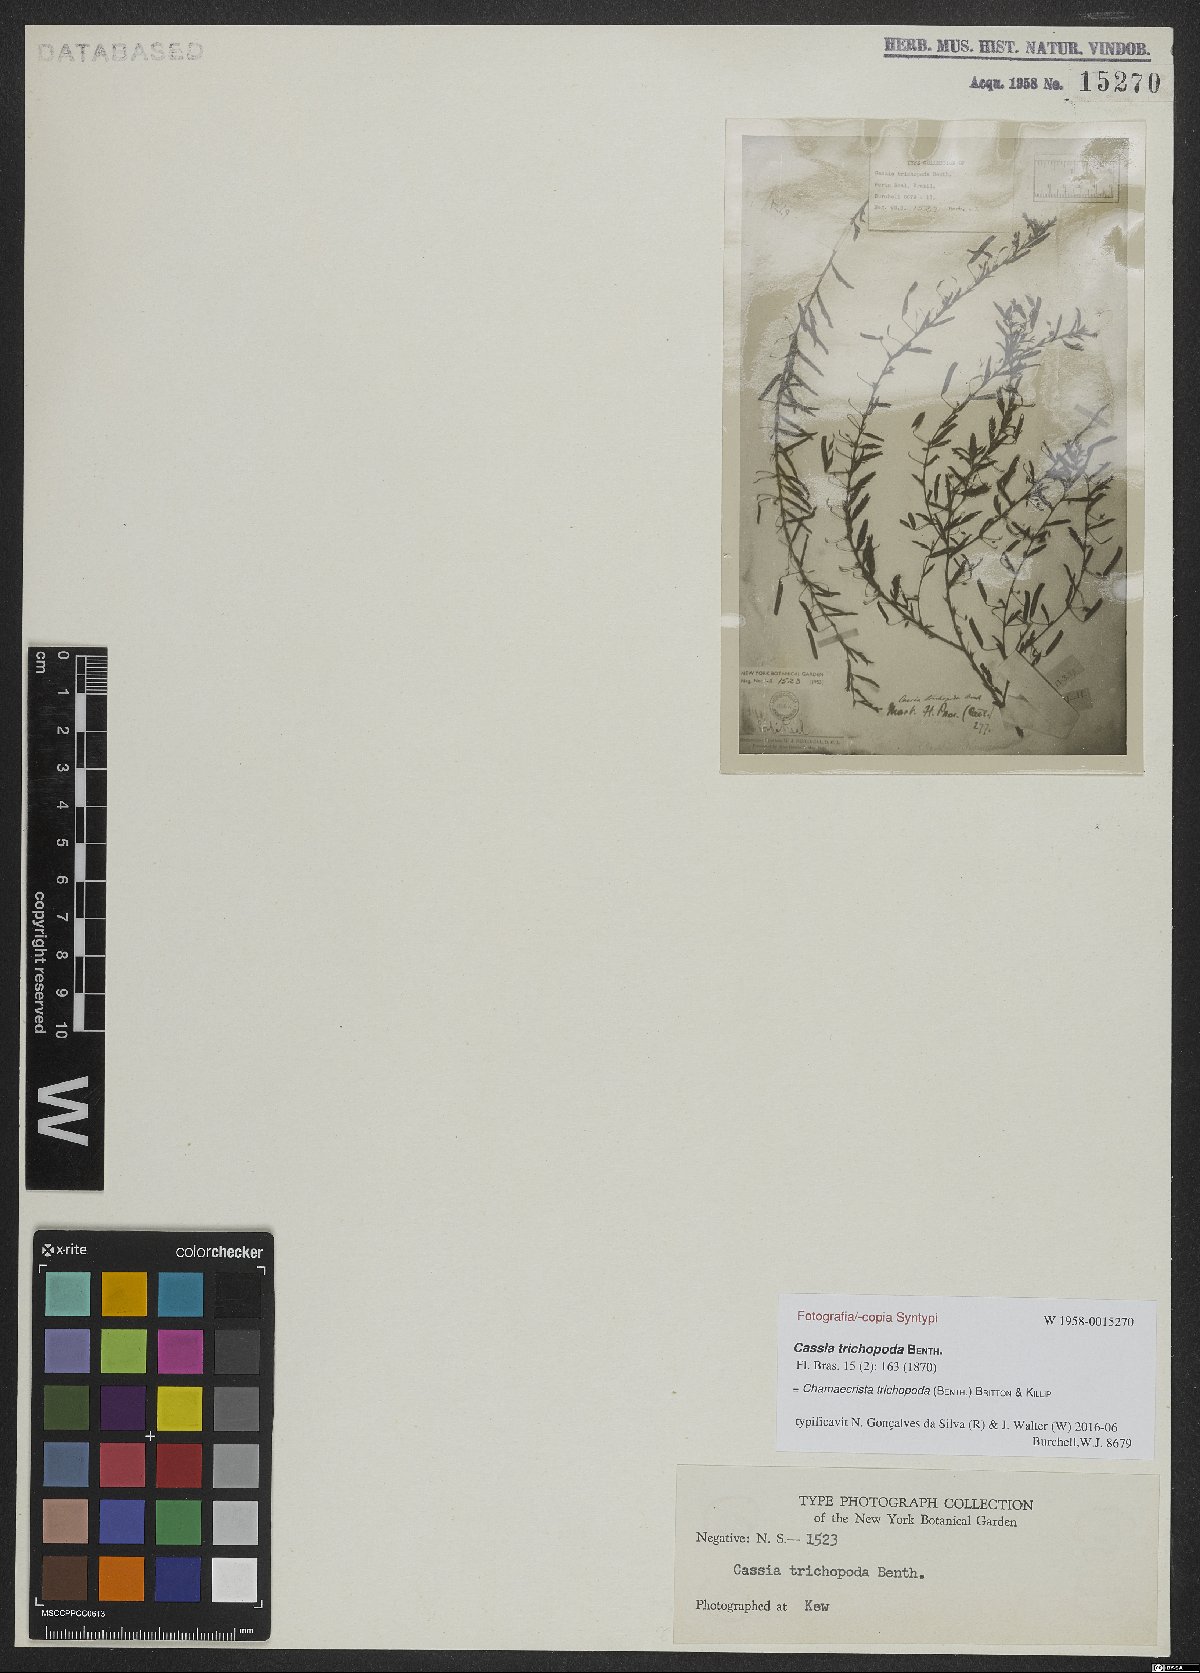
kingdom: Plantae
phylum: Tracheophyta
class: Magnoliopsida
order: Fabales
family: Fabaceae
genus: Chamaecrista
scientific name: Chamaecrista trichopoda
